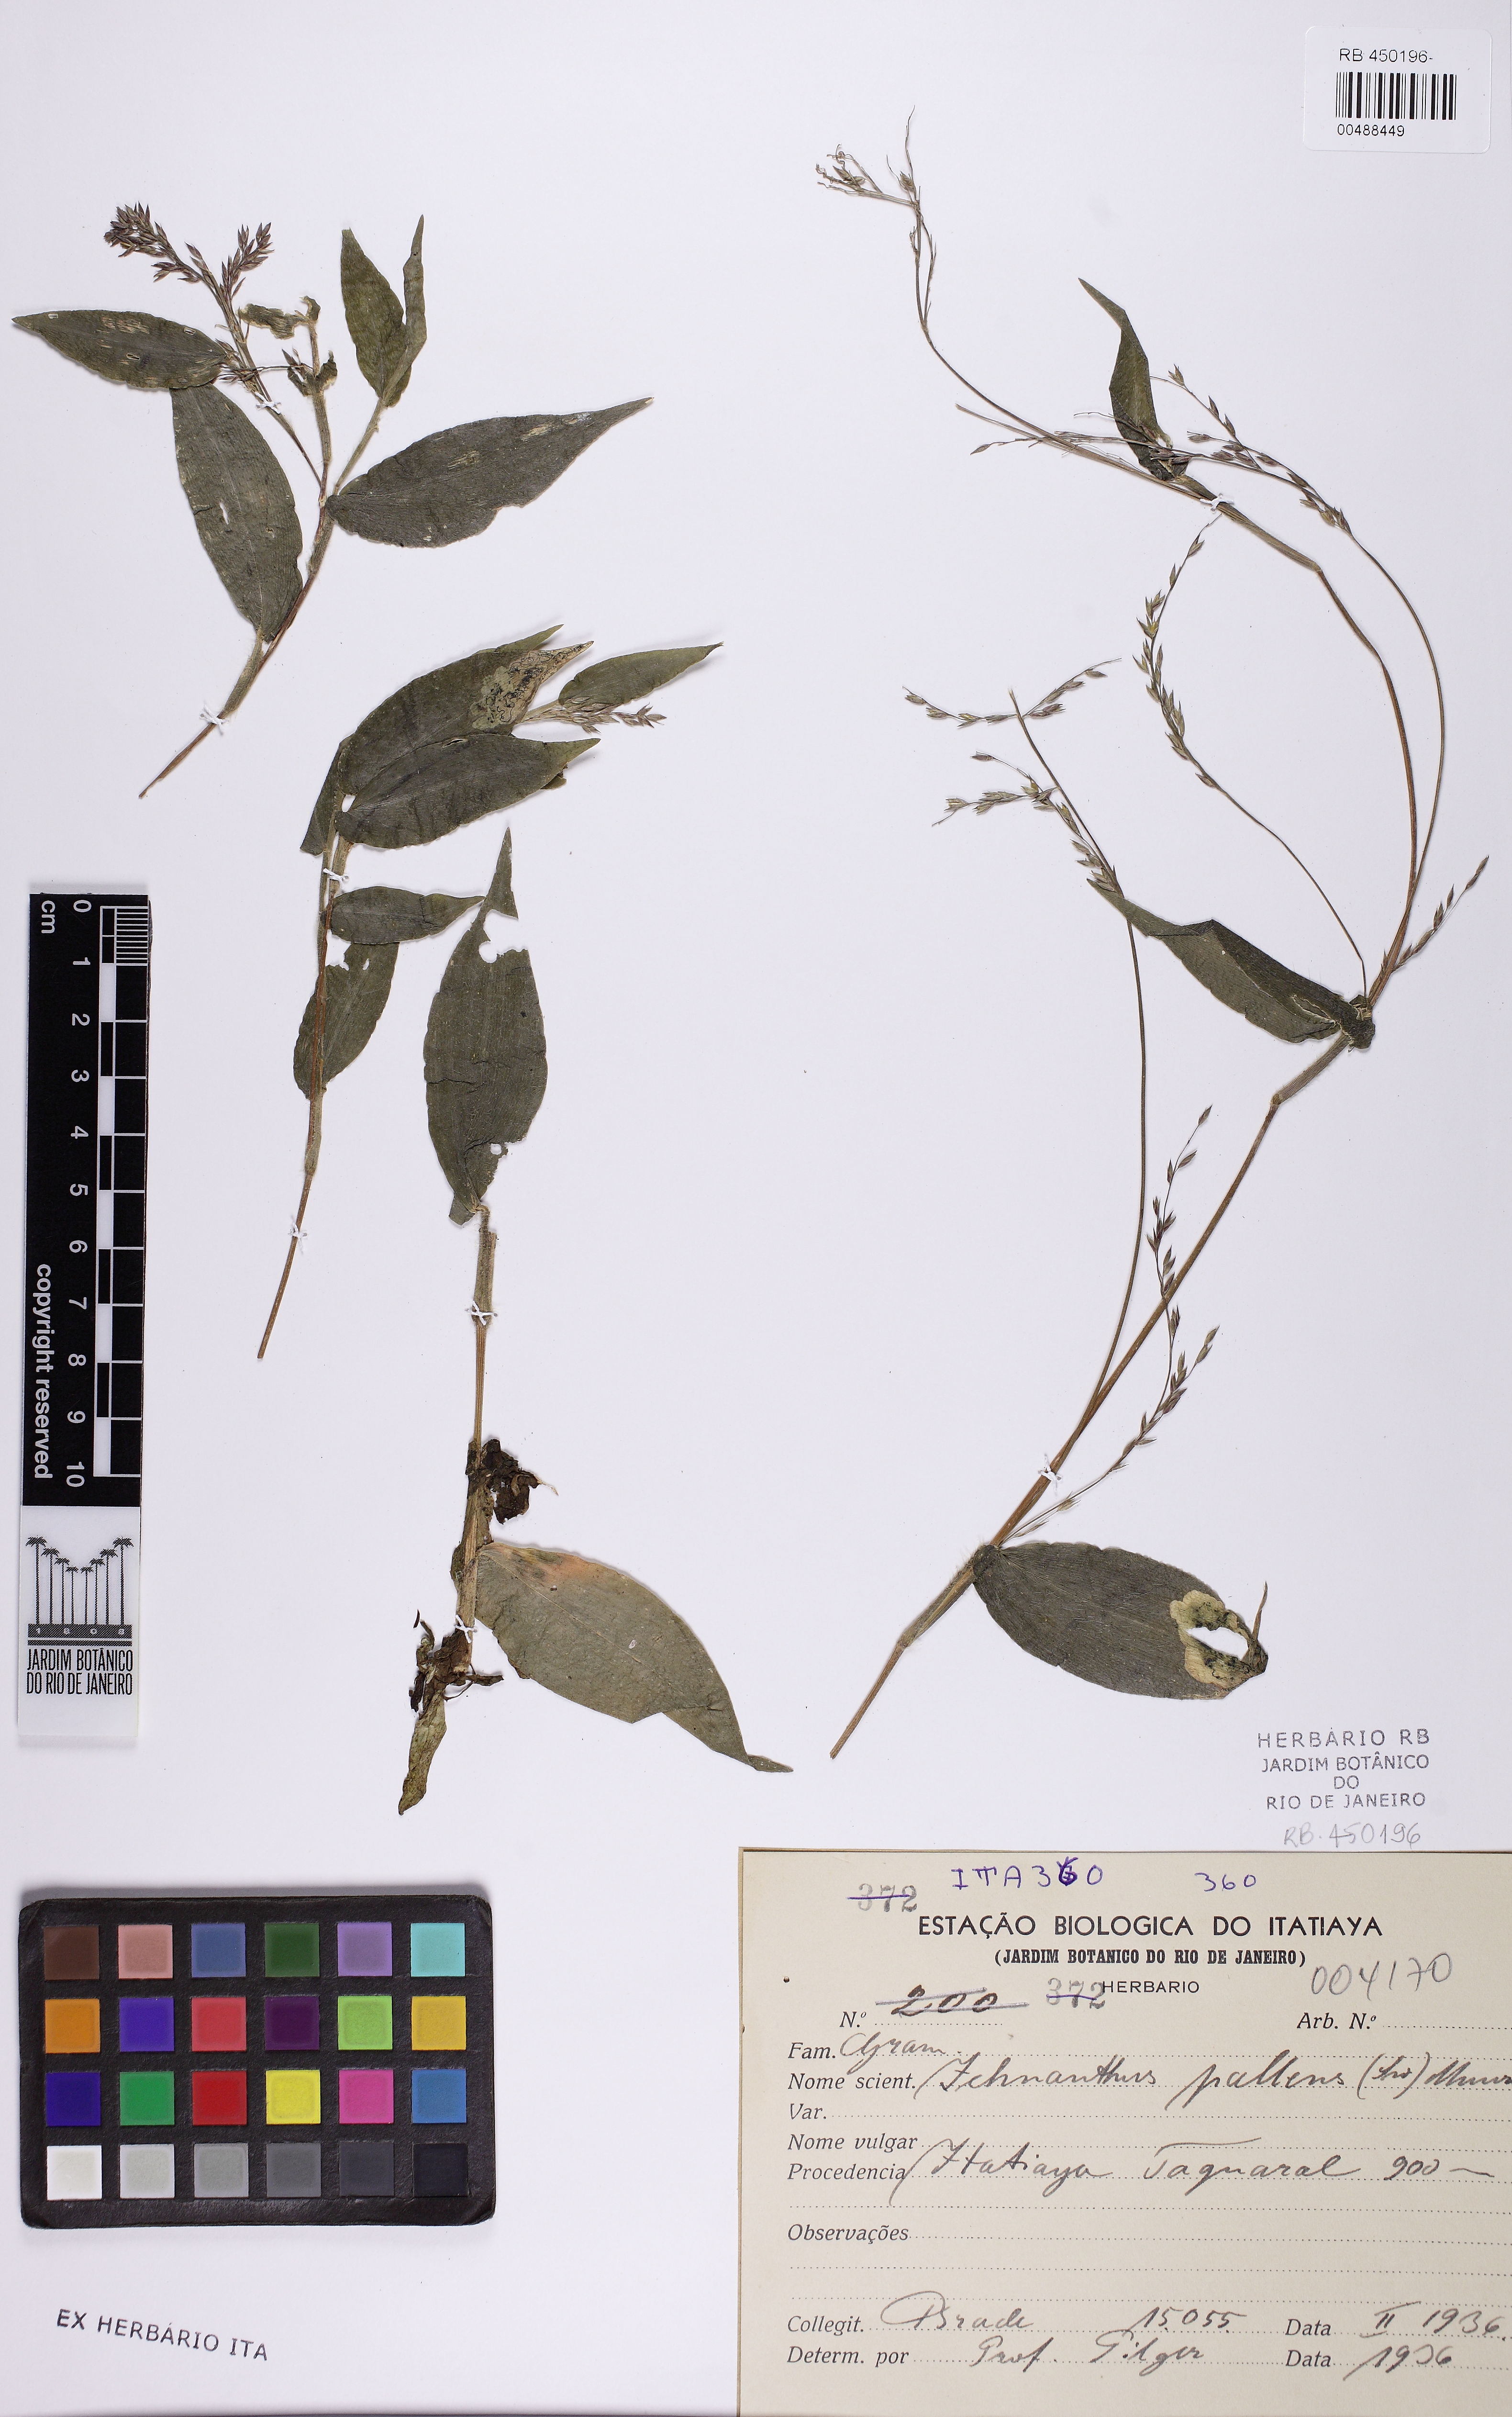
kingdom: Plantae
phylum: Tracheophyta
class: Liliopsida
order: Poales
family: Poaceae
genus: Ichnanthus
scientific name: Ichnanthus pallens
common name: Water grass
